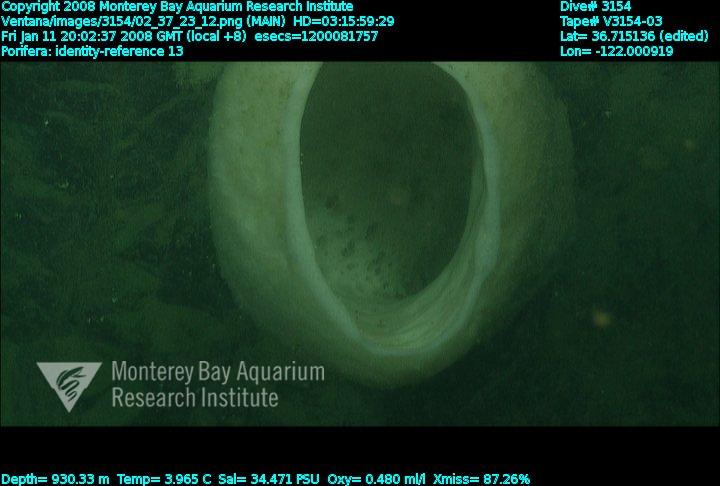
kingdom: Animalia
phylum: Porifera
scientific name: Porifera
